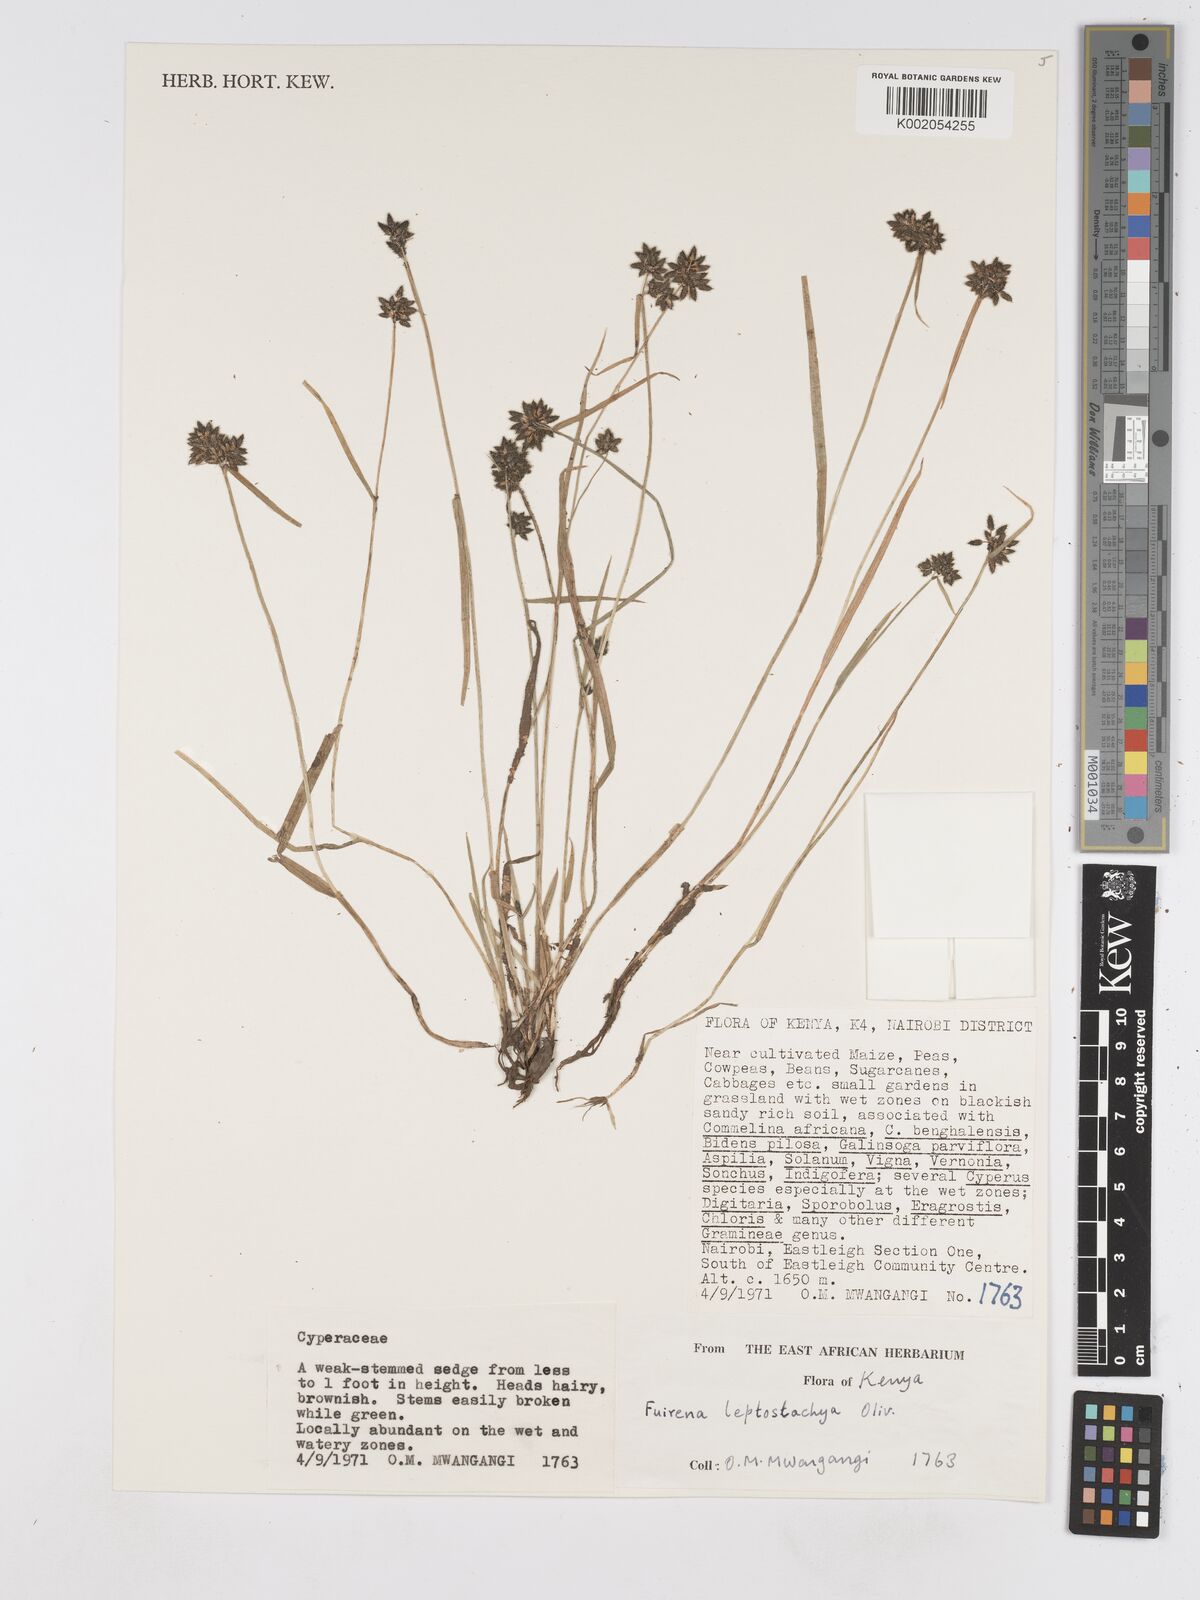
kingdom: Plantae
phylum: Tracheophyta
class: Liliopsida
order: Poales
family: Cyperaceae
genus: Fuirena
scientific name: Fuirena leptostachya
